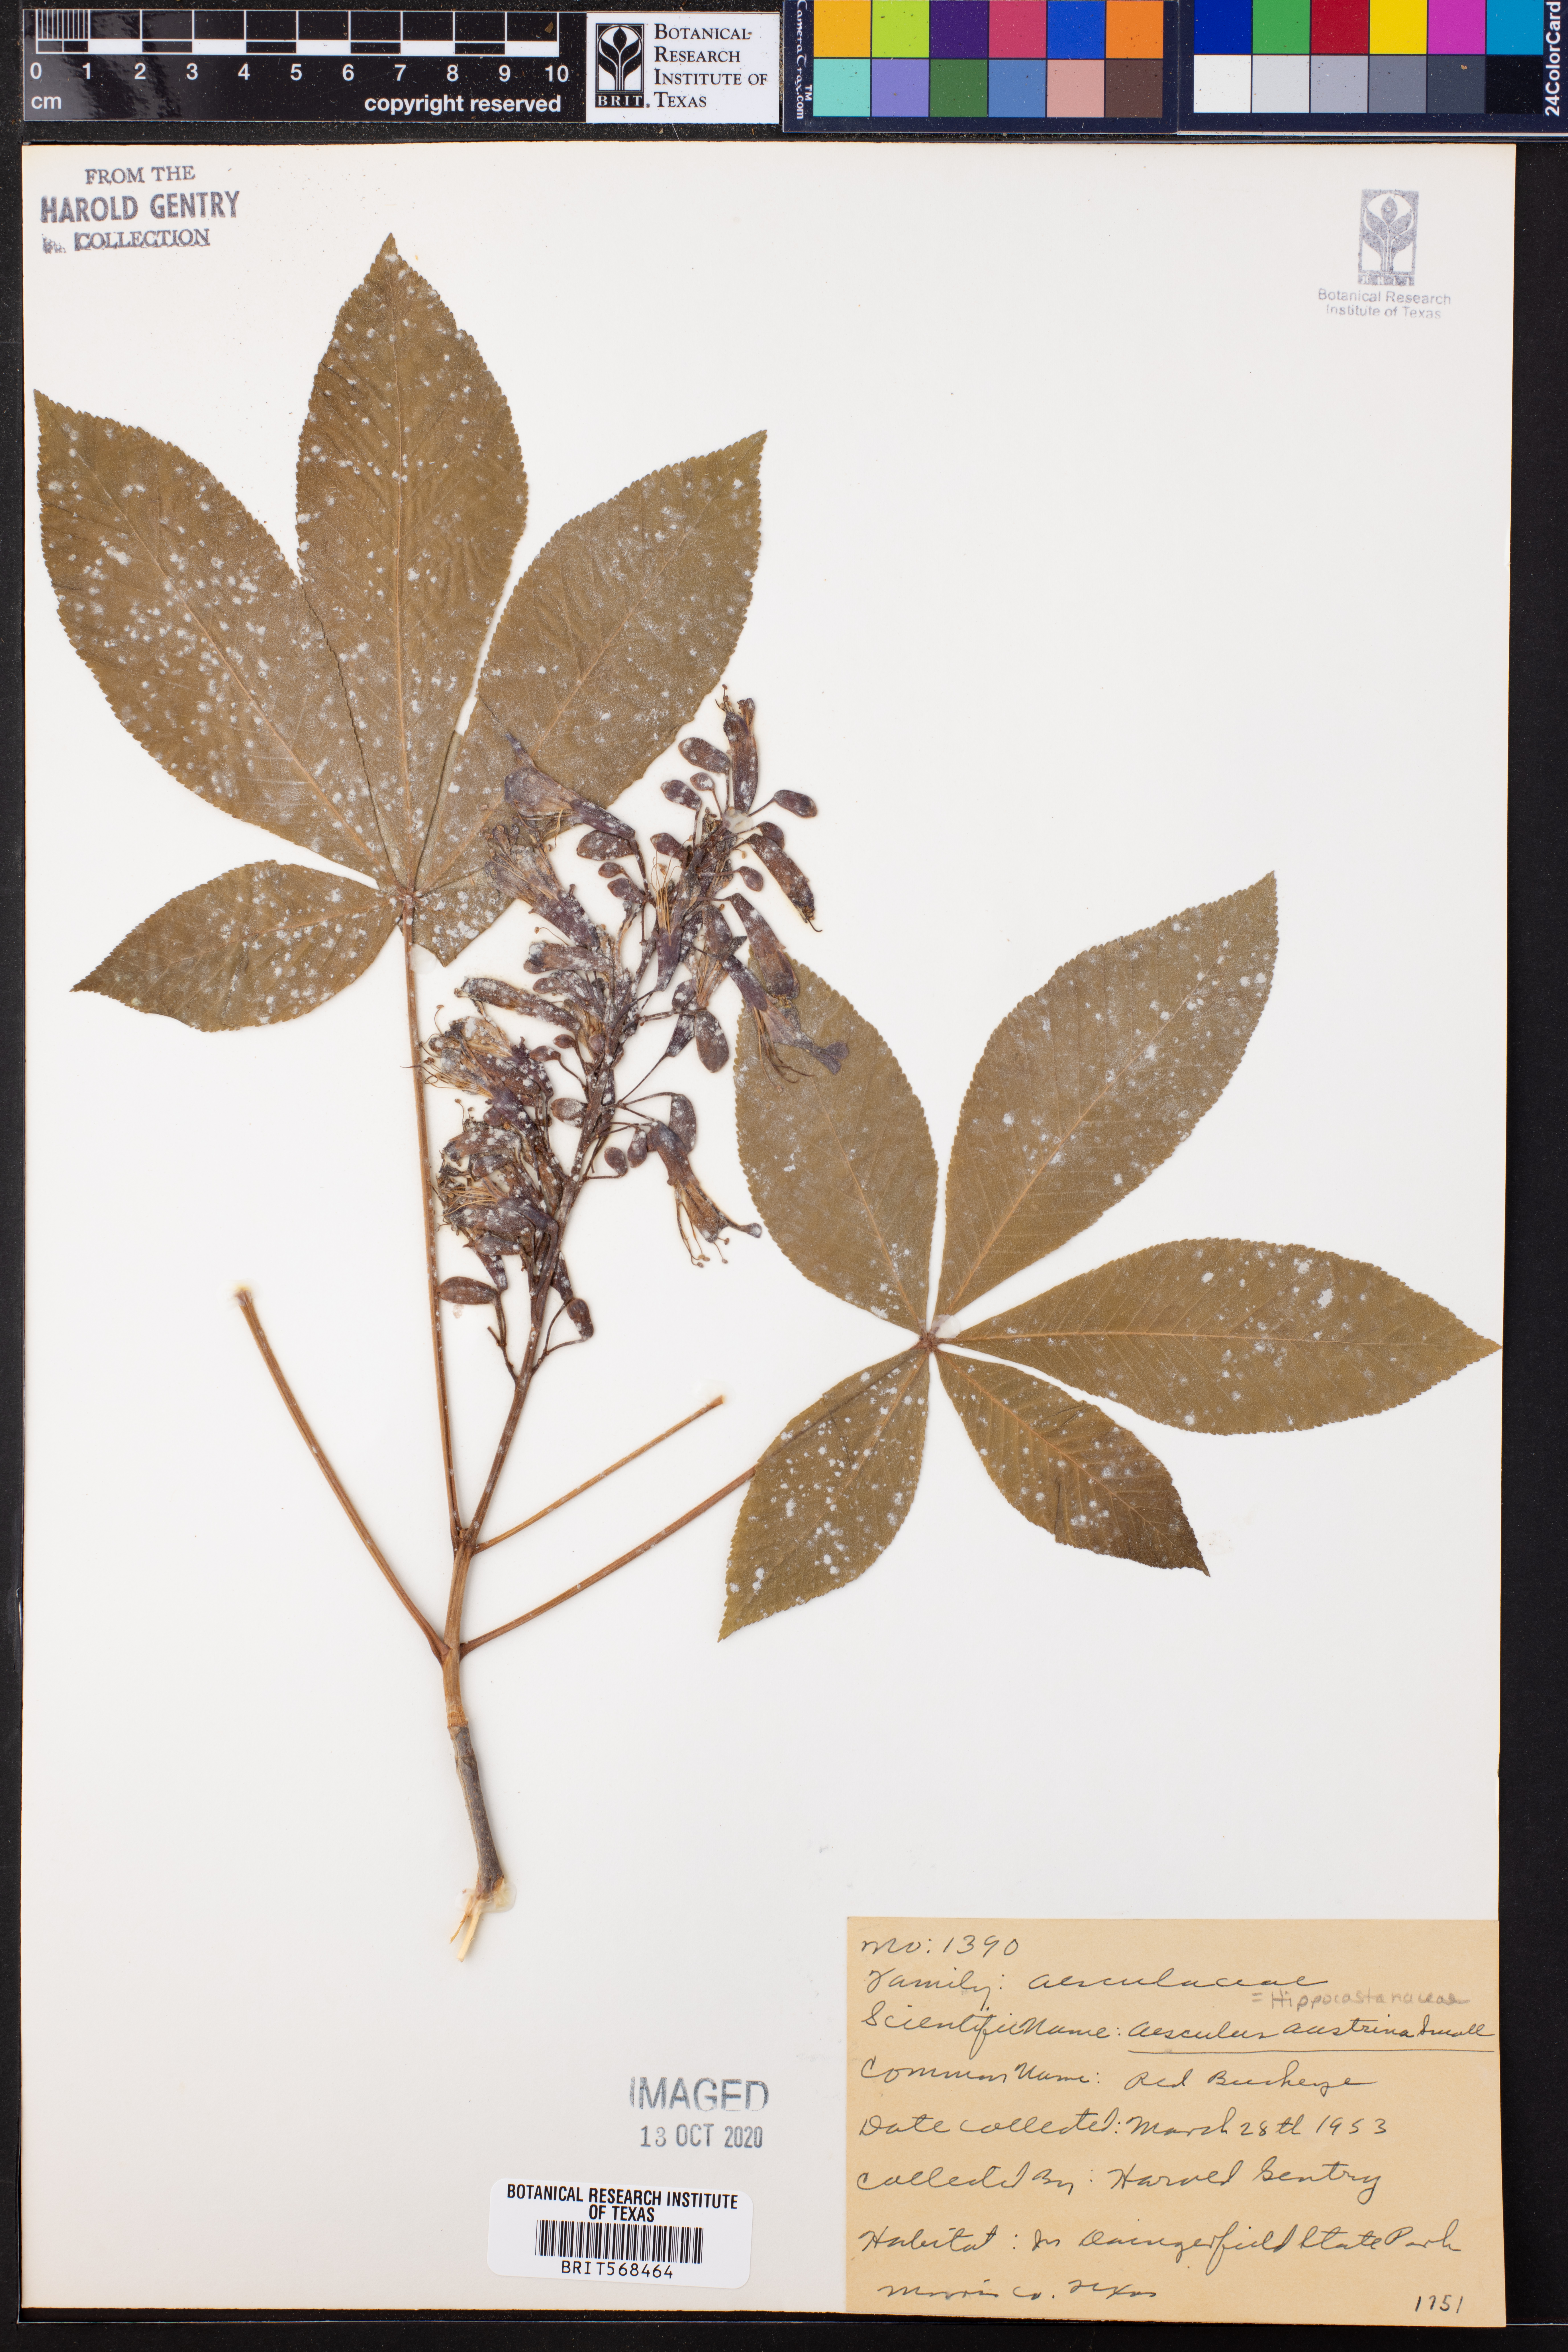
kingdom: Plantae
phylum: Tracheophyta
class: Magnoliopsida
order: Sapindales
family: Sapindaceae
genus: Aesculus
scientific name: Aesculus pavia
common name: Red buckeye
